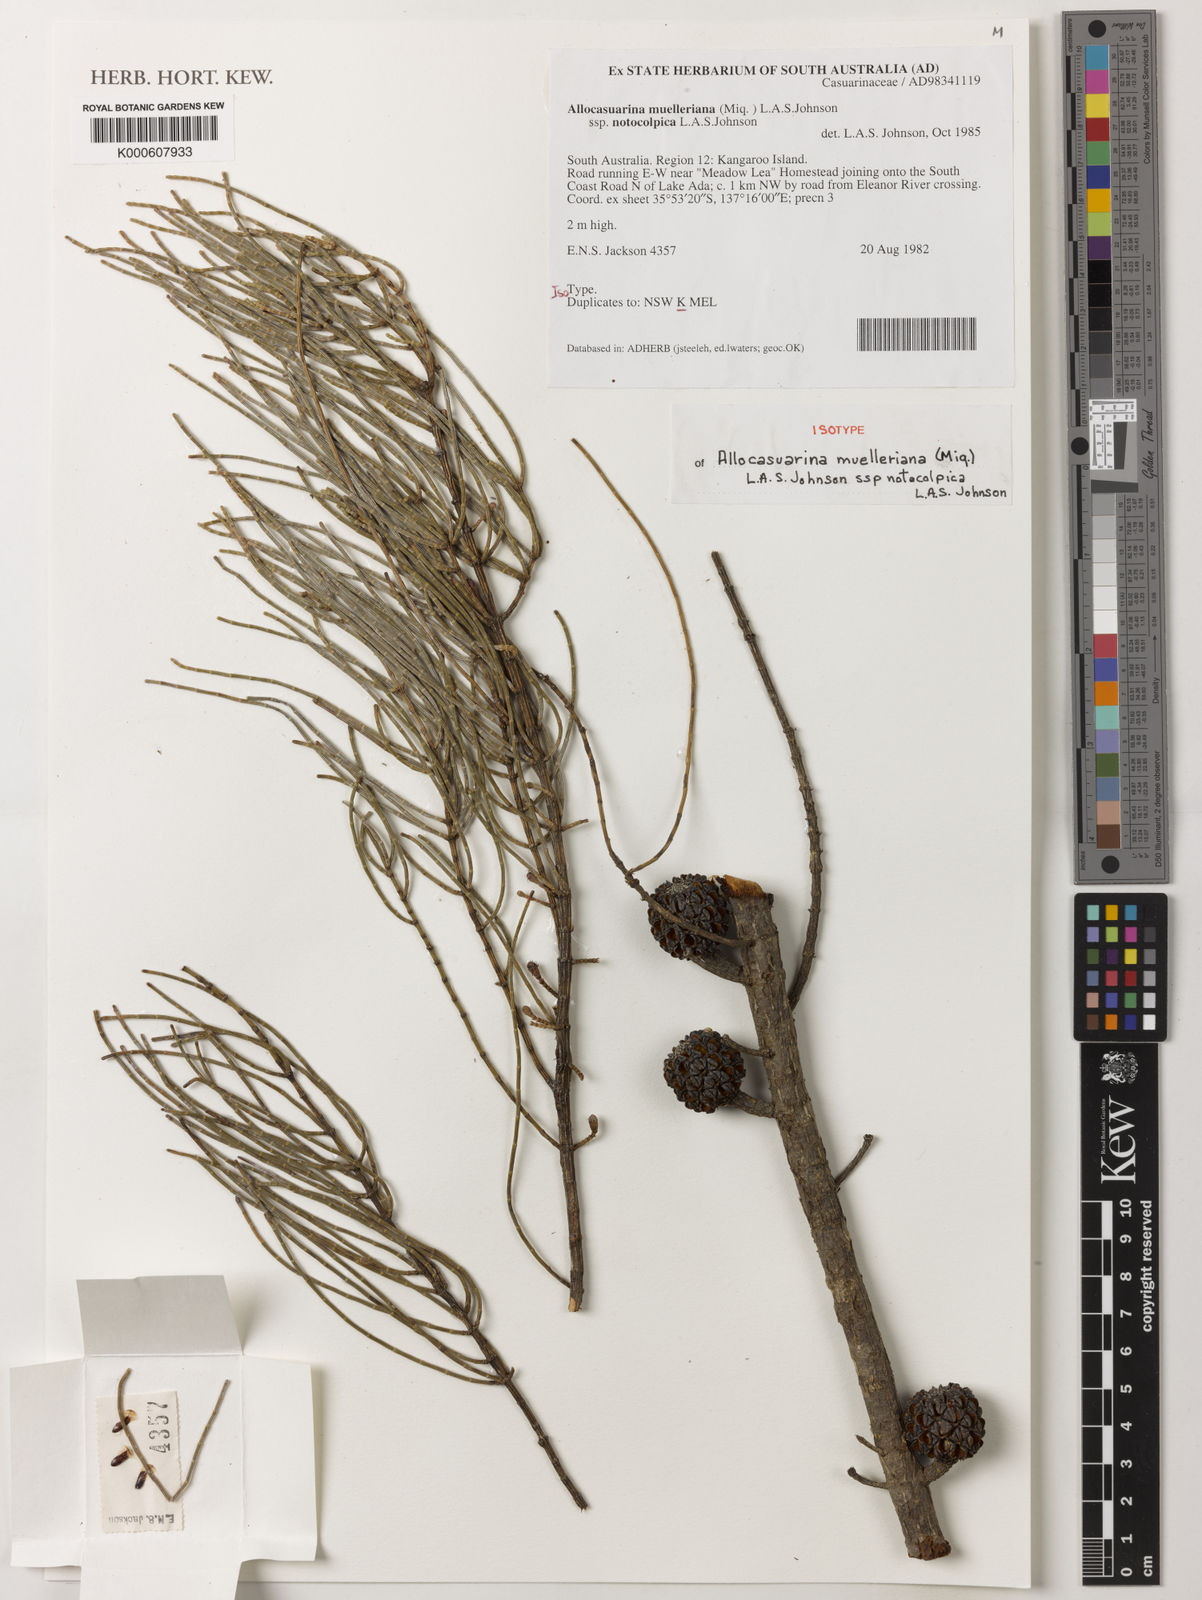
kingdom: Plantae
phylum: Tracheophyta
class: Magnoliopsida
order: Fagales
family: Casuarinaceae
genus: Allocasuarina
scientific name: Allocasuarina muelleriana
